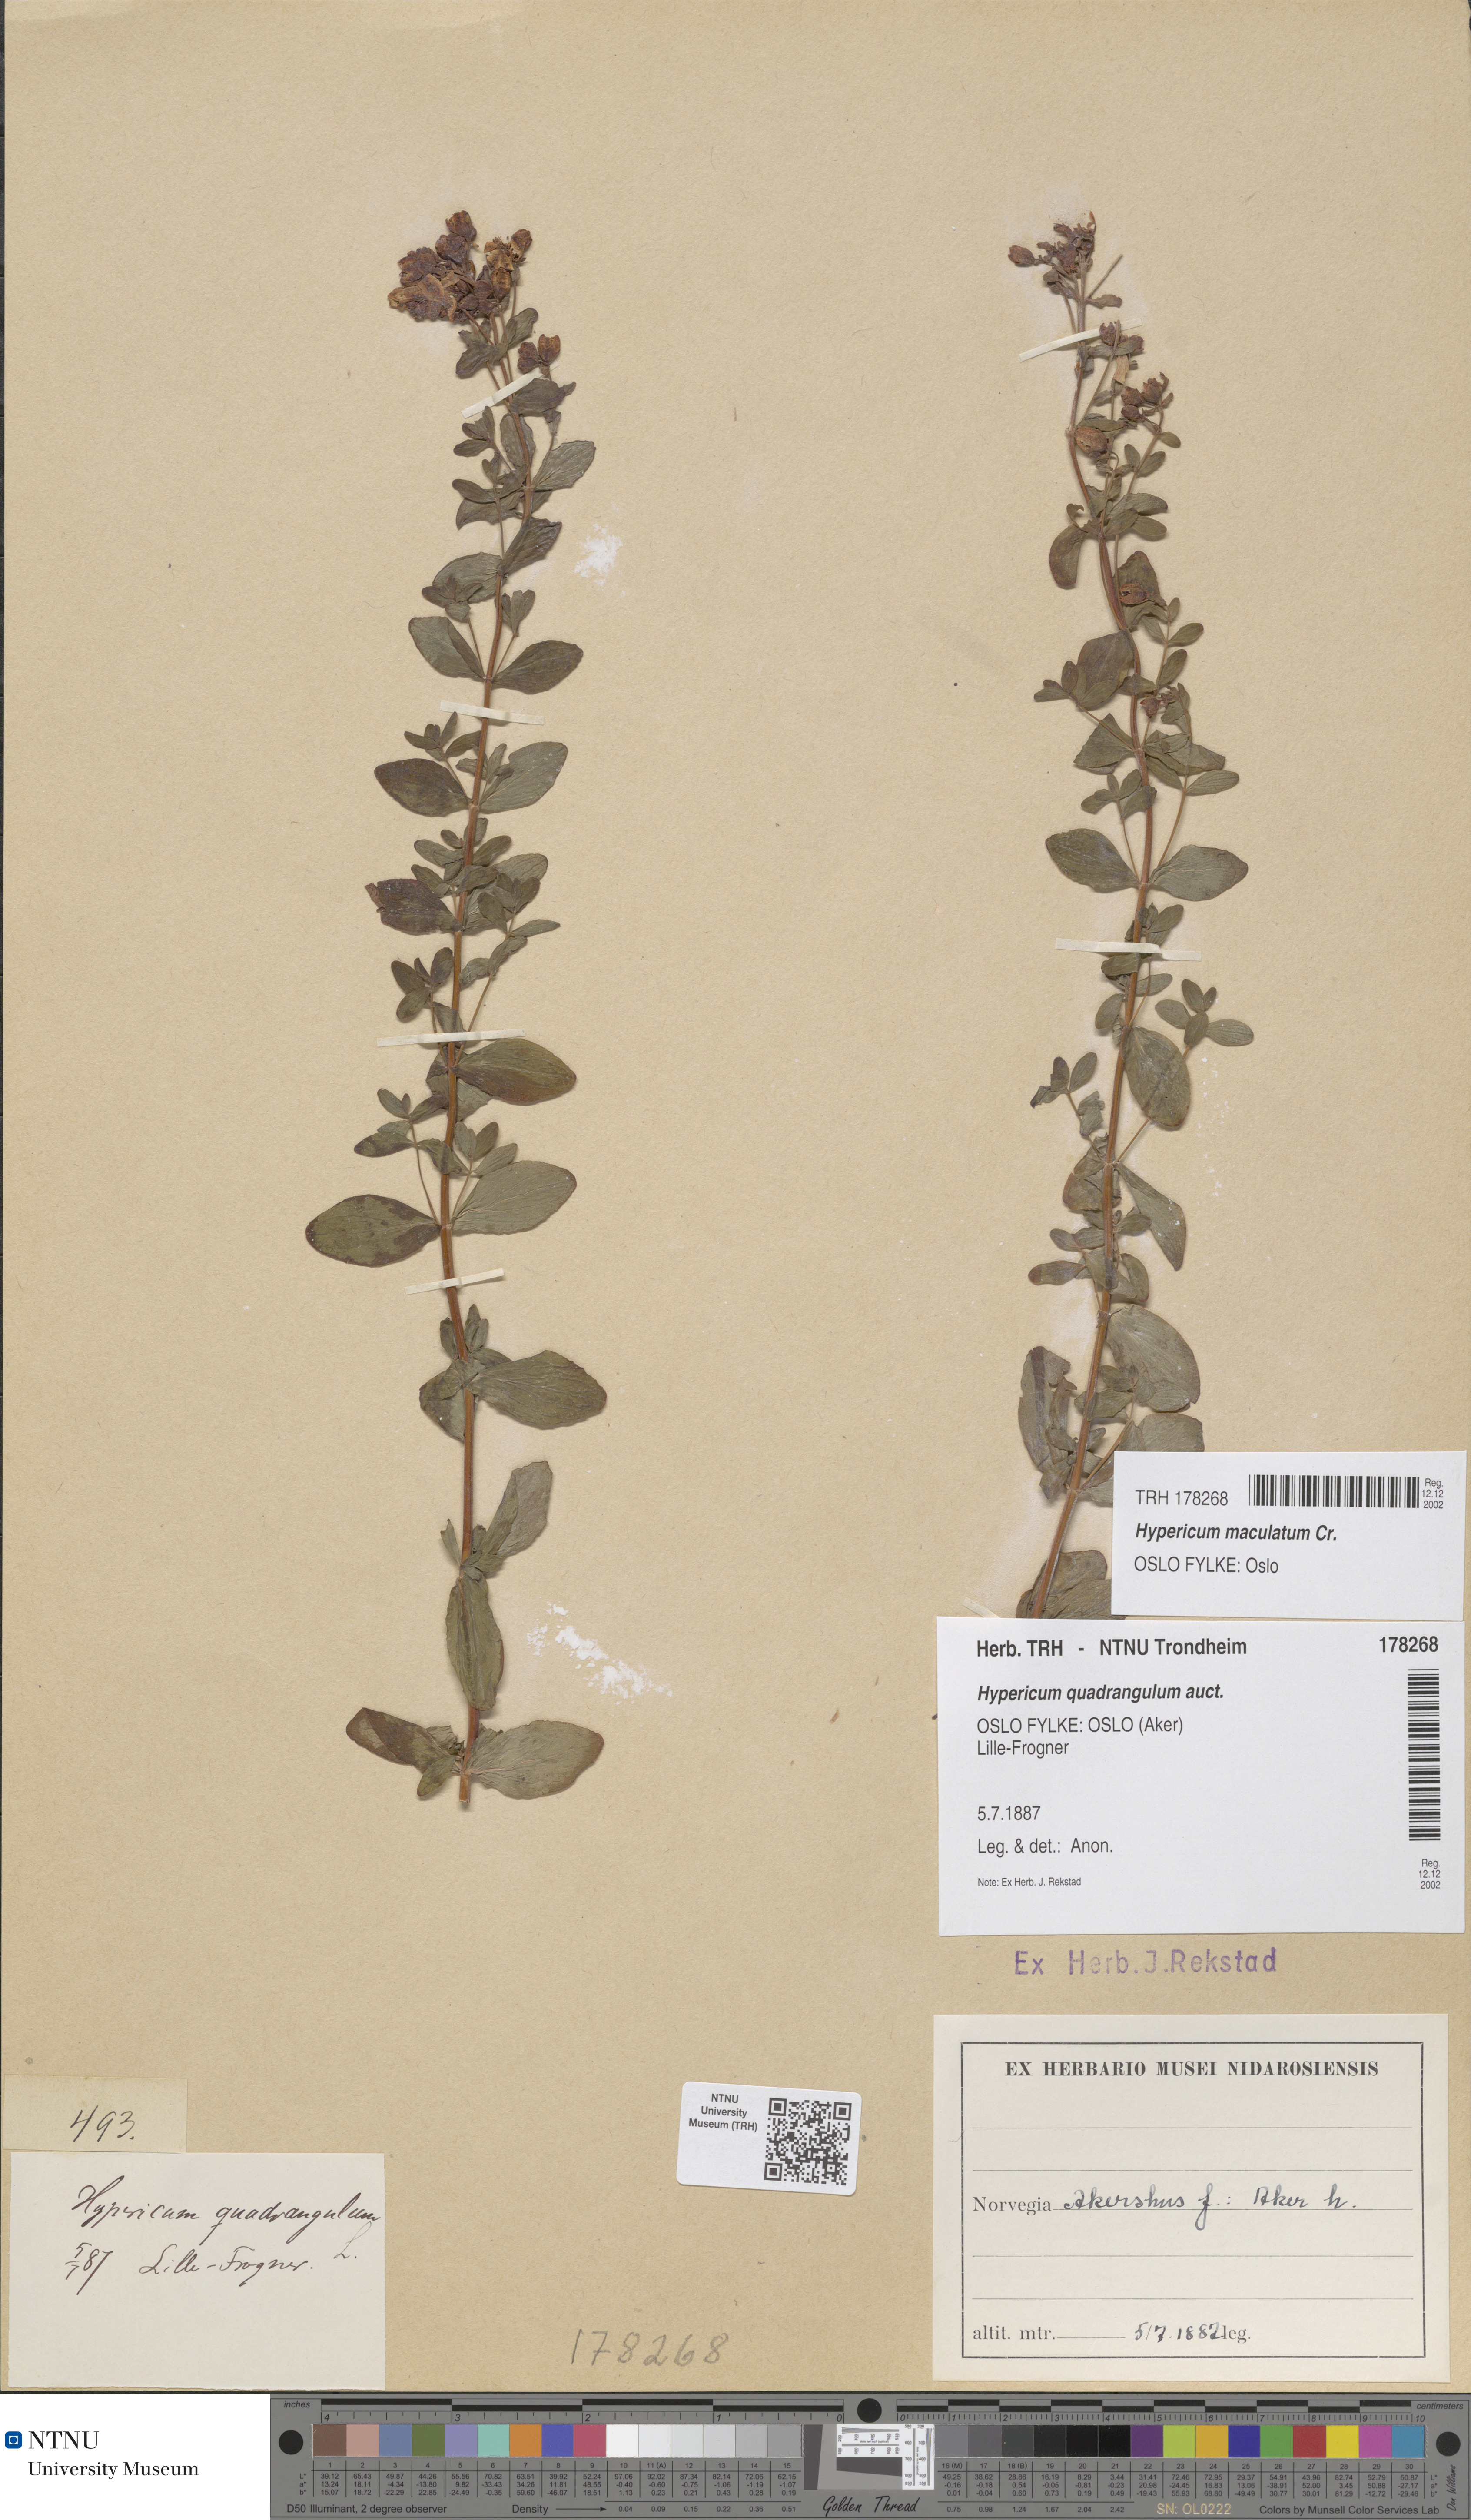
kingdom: Plantae
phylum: Tracheophyta
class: Magnoliopsida
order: Malpighiales
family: Hypericaceae
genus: Hypericum
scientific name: Hypericum maculatum
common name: Imperforate st. john's-wort
